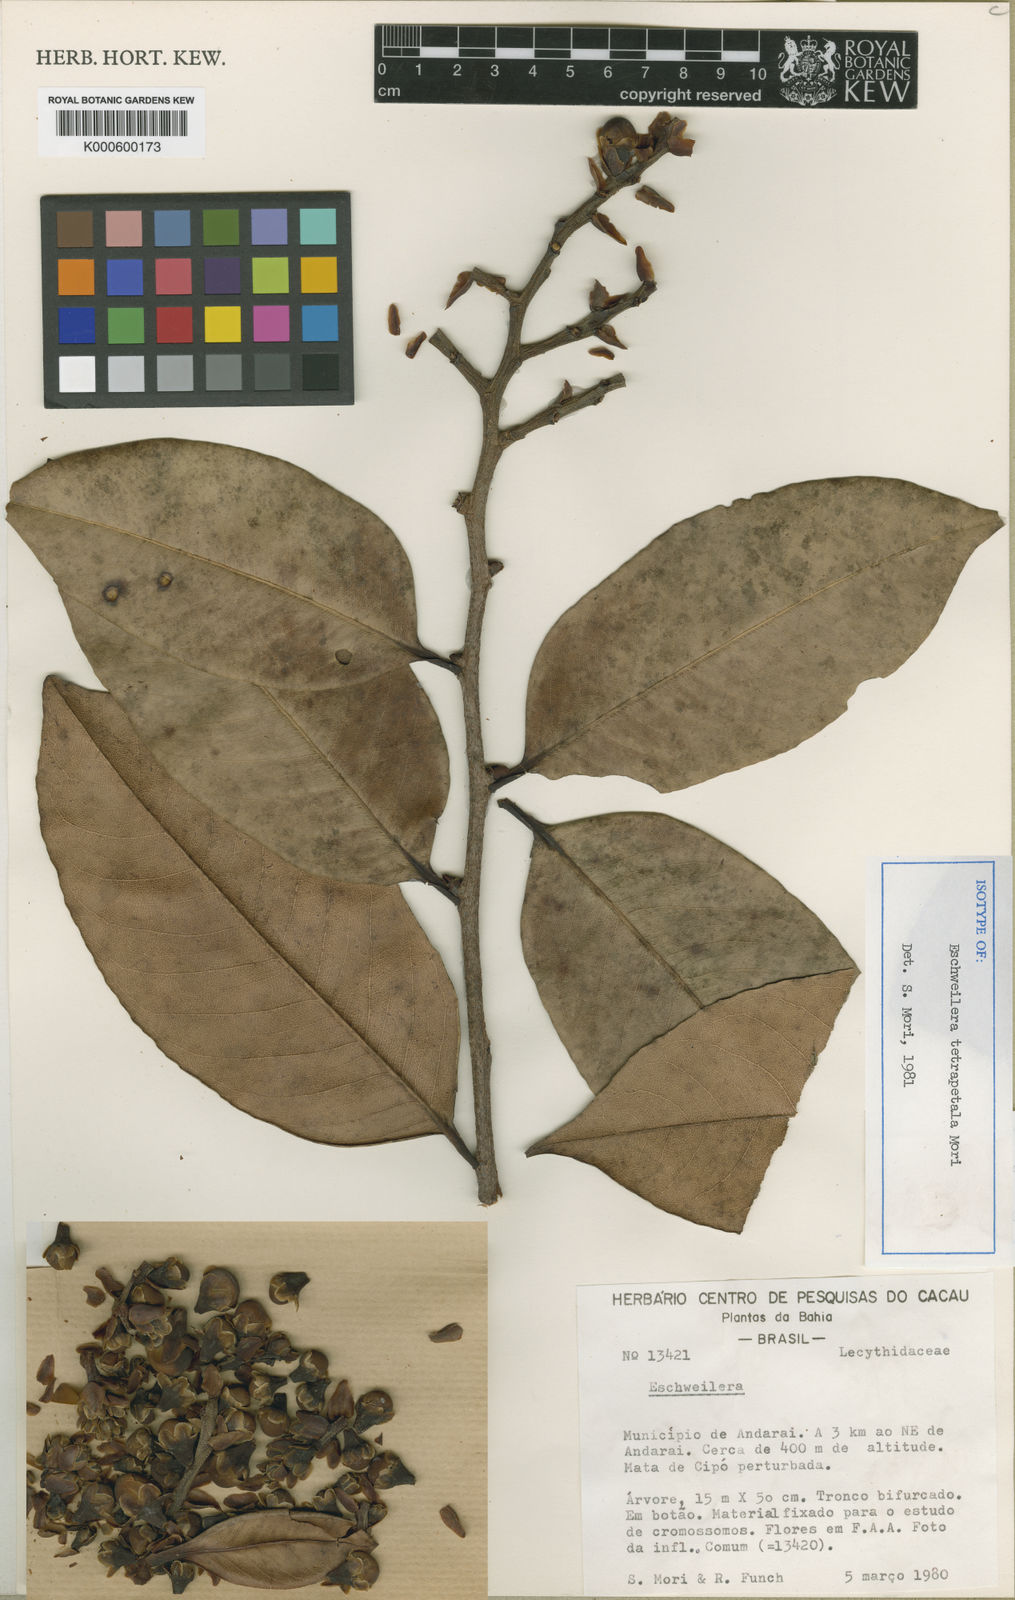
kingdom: Plantae
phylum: Tracheophyta
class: Magnoliopsida
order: Ericales
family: Lecythidaceae
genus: Eschweilera
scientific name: Eschweilera tetrapetala
